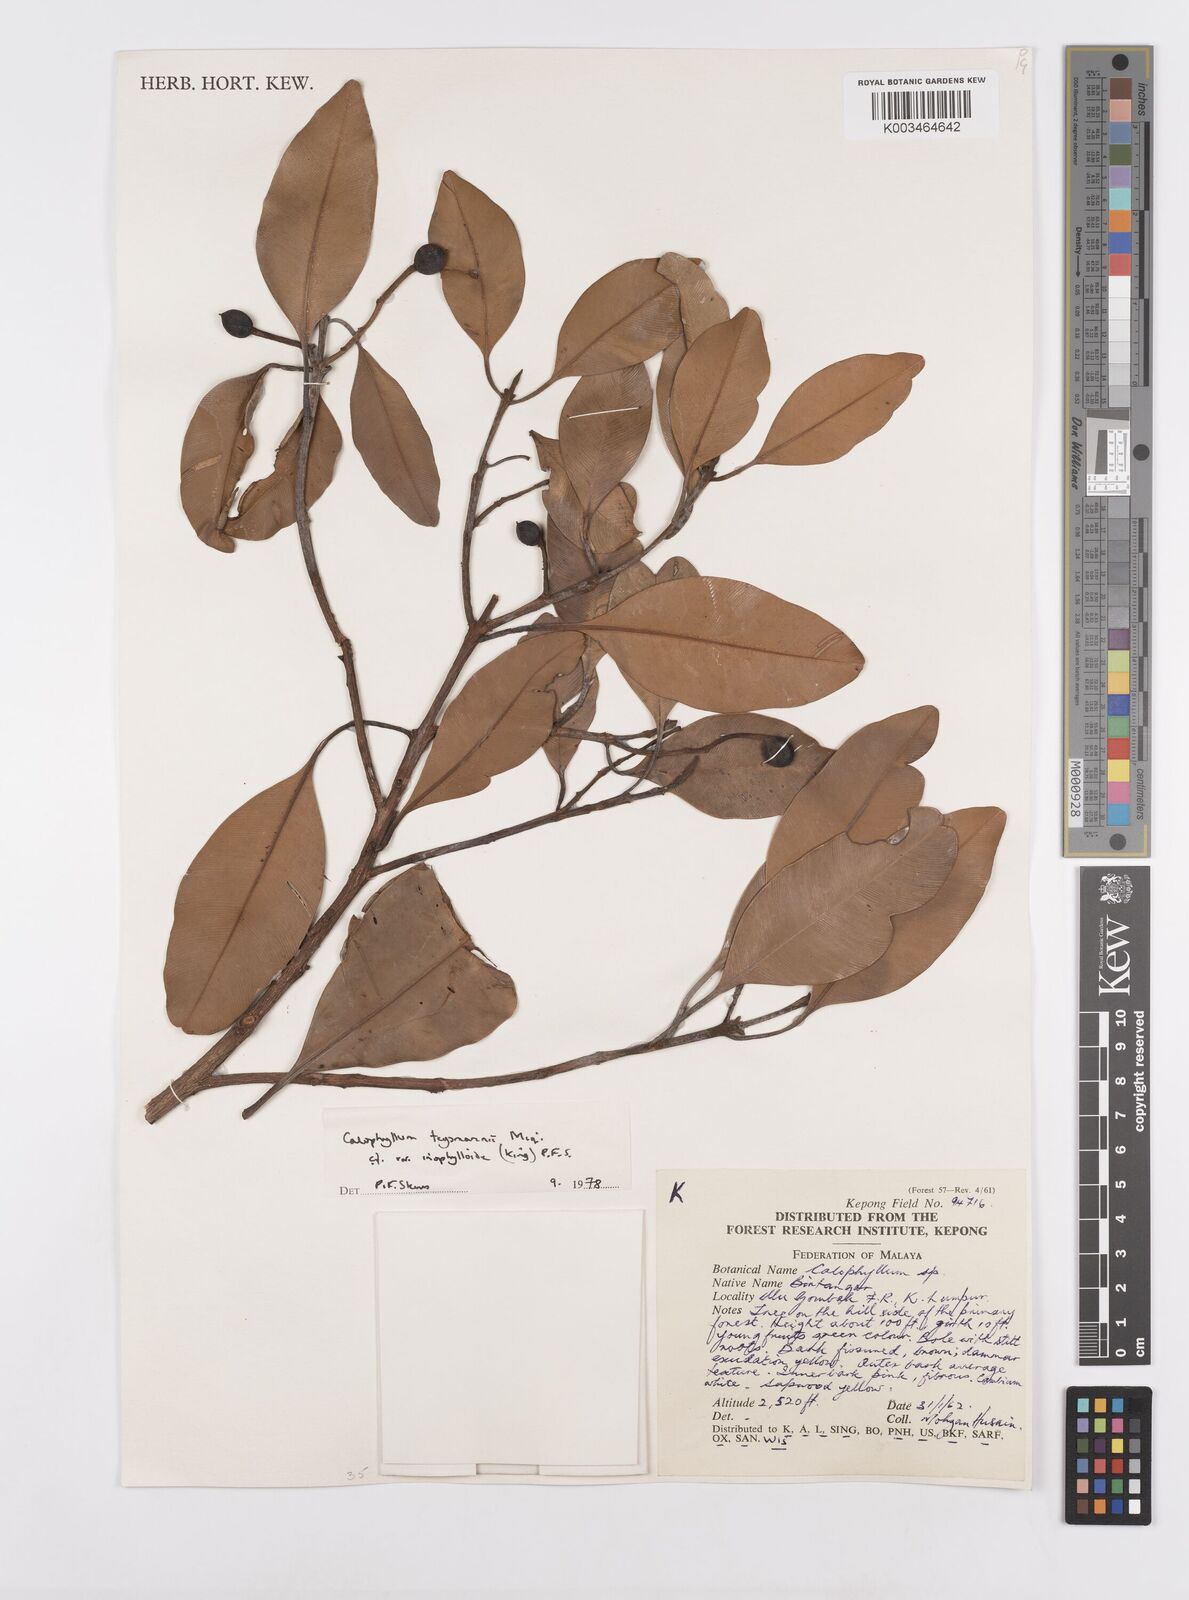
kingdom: Plantae
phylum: Tracheophyta
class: Magnoliopsida
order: Malpighiales
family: Calophyllaceae
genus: Calophyllum
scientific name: Calophyllum teysmannii
